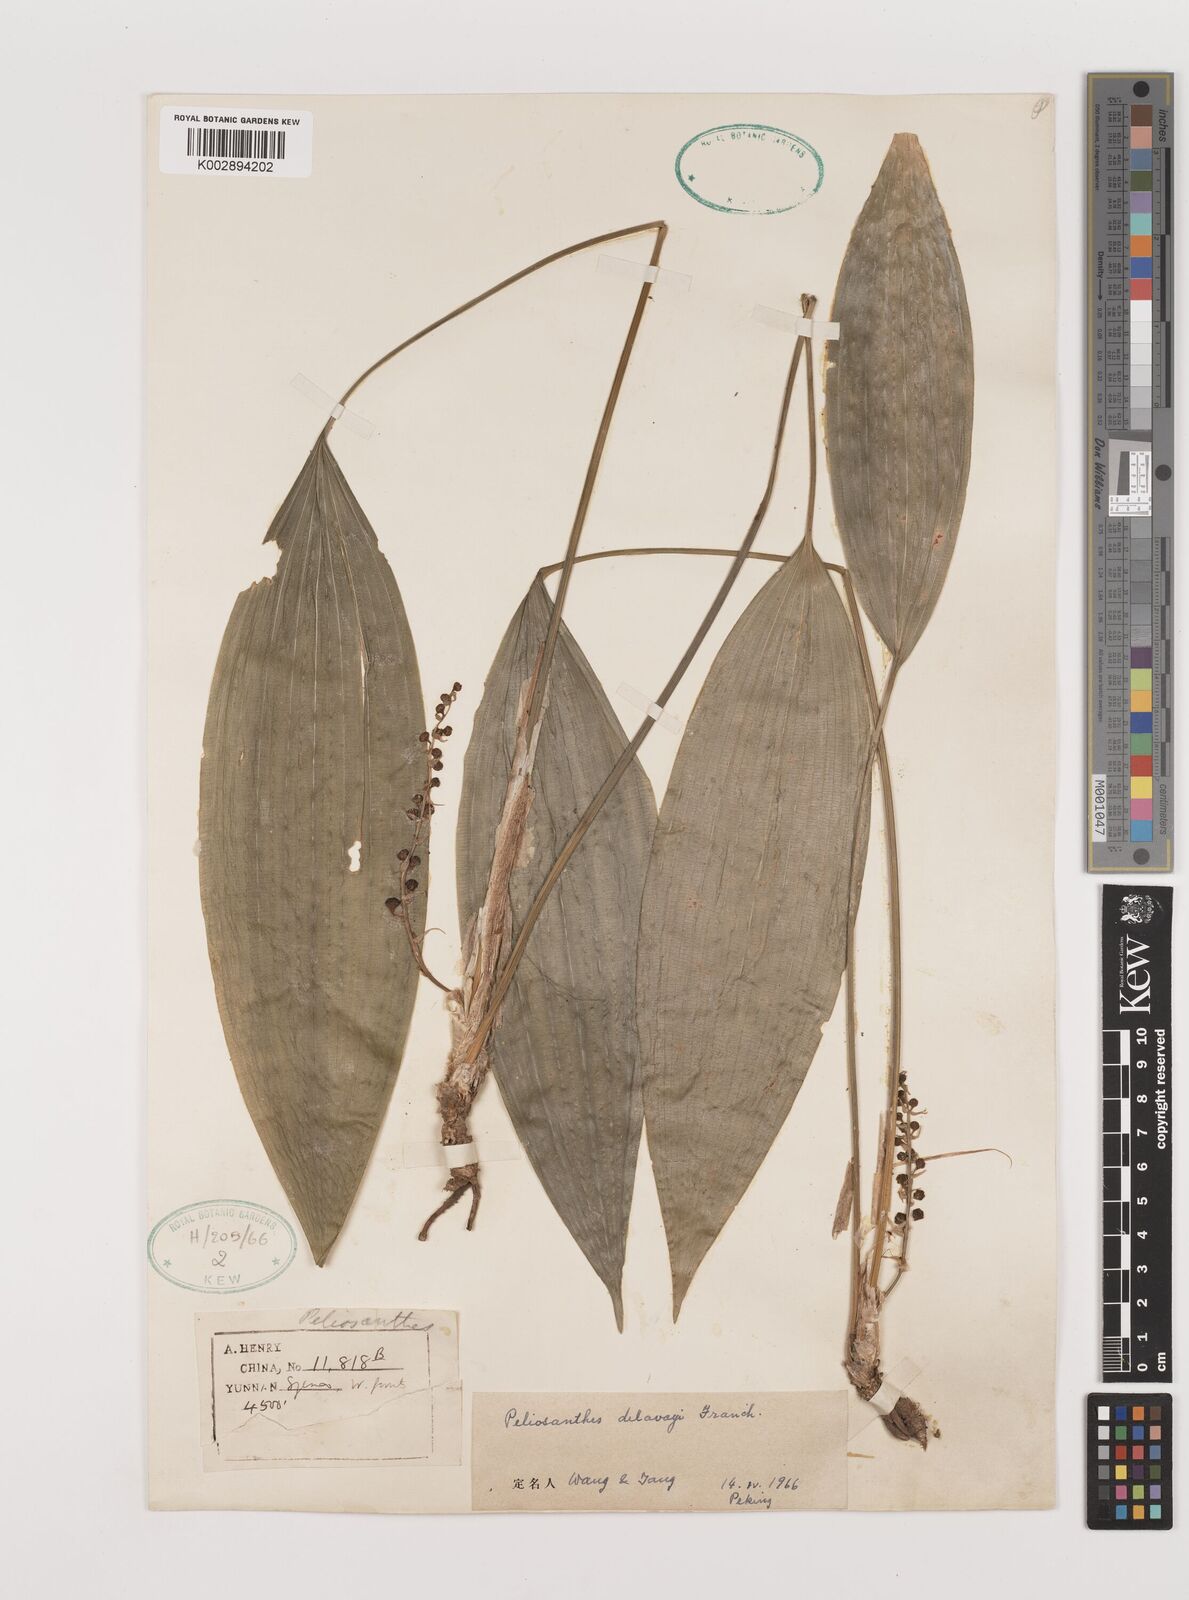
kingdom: Plantae
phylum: Tracheophyta
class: Liliopsida
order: Asparagales
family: Asparagaceae
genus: Peliosanthes
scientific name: Peliosanthes teta
